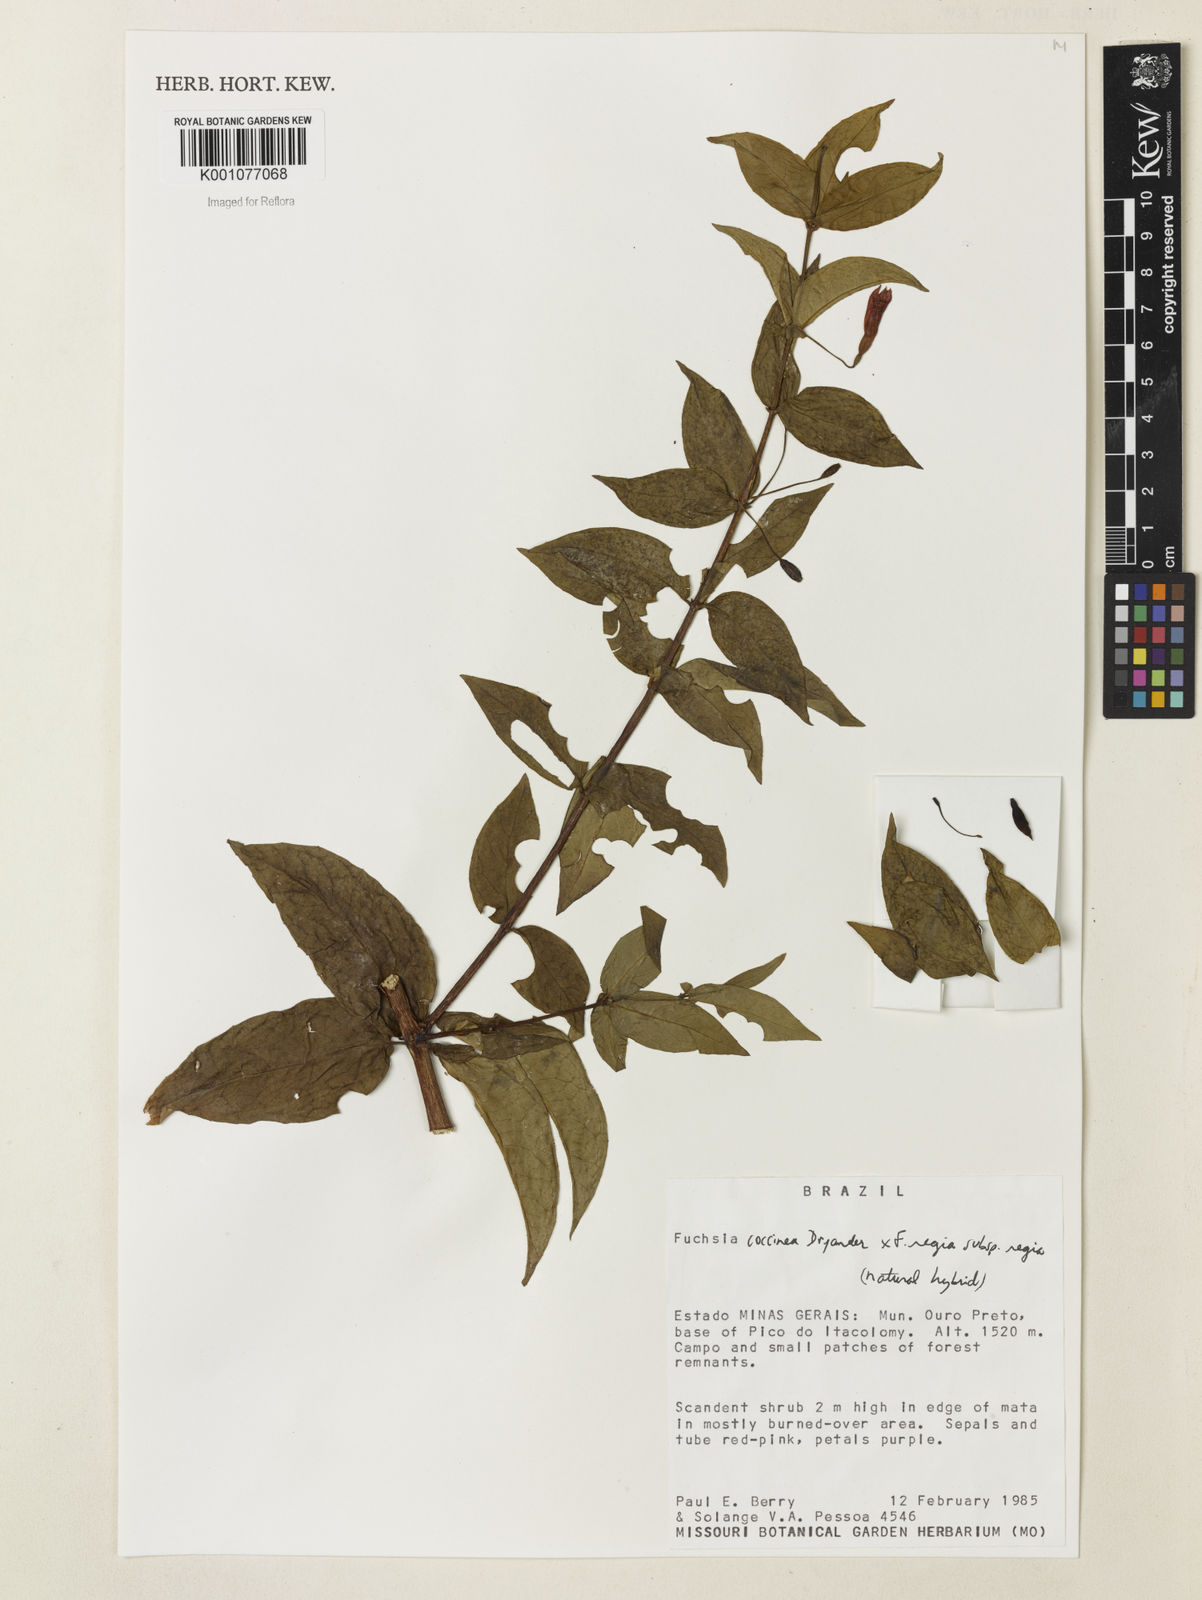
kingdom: Plantae
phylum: Tracheophyta
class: Magnoliopsida
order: Myrtales
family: Onagraceae
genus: Fuchsia
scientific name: Fuchsia
